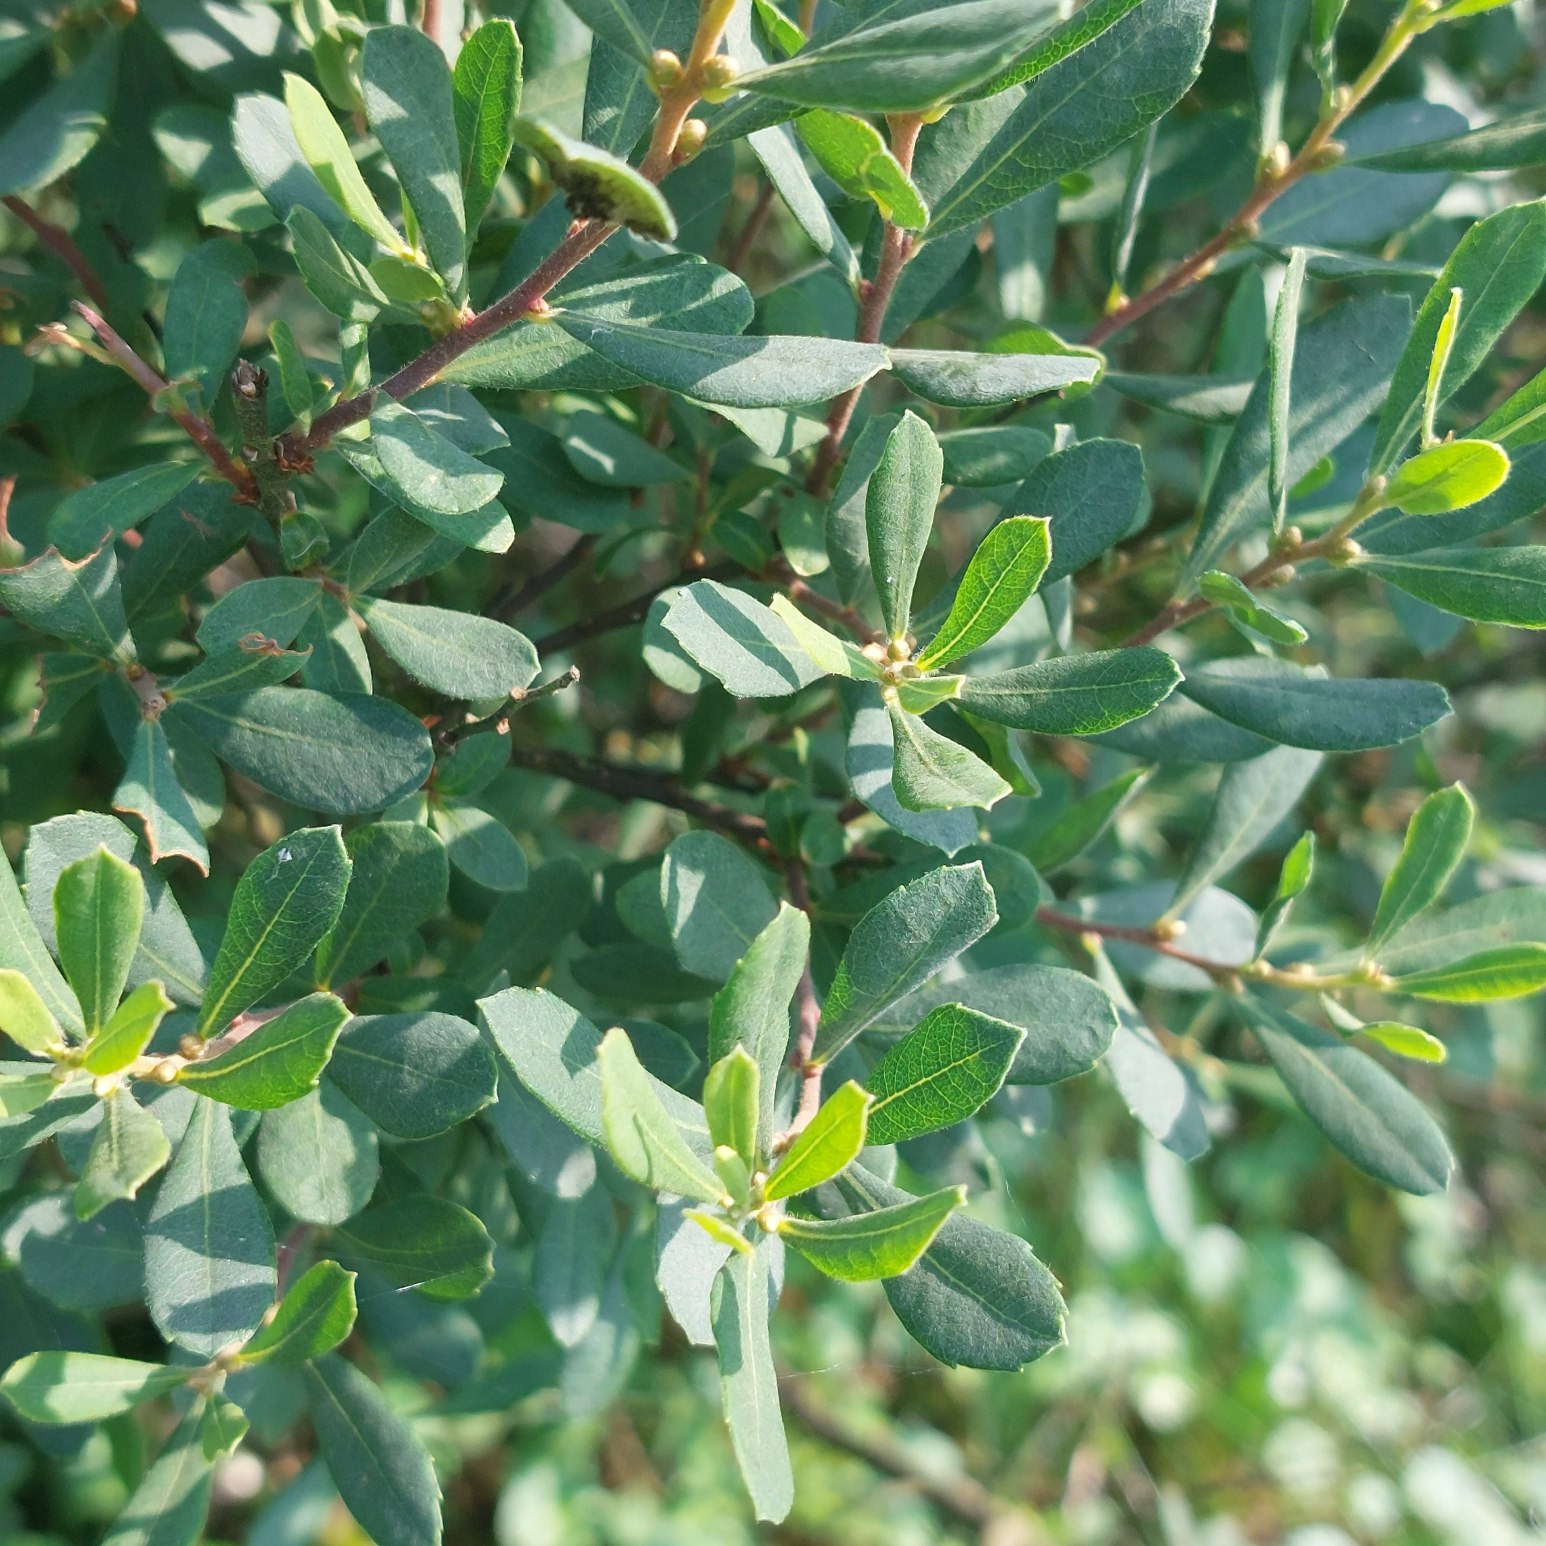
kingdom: Plantae
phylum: Tracheophyta
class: Magnoliopsida
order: Fagales
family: Myricaceae
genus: Myrica
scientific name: Myrica gale
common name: Pors
